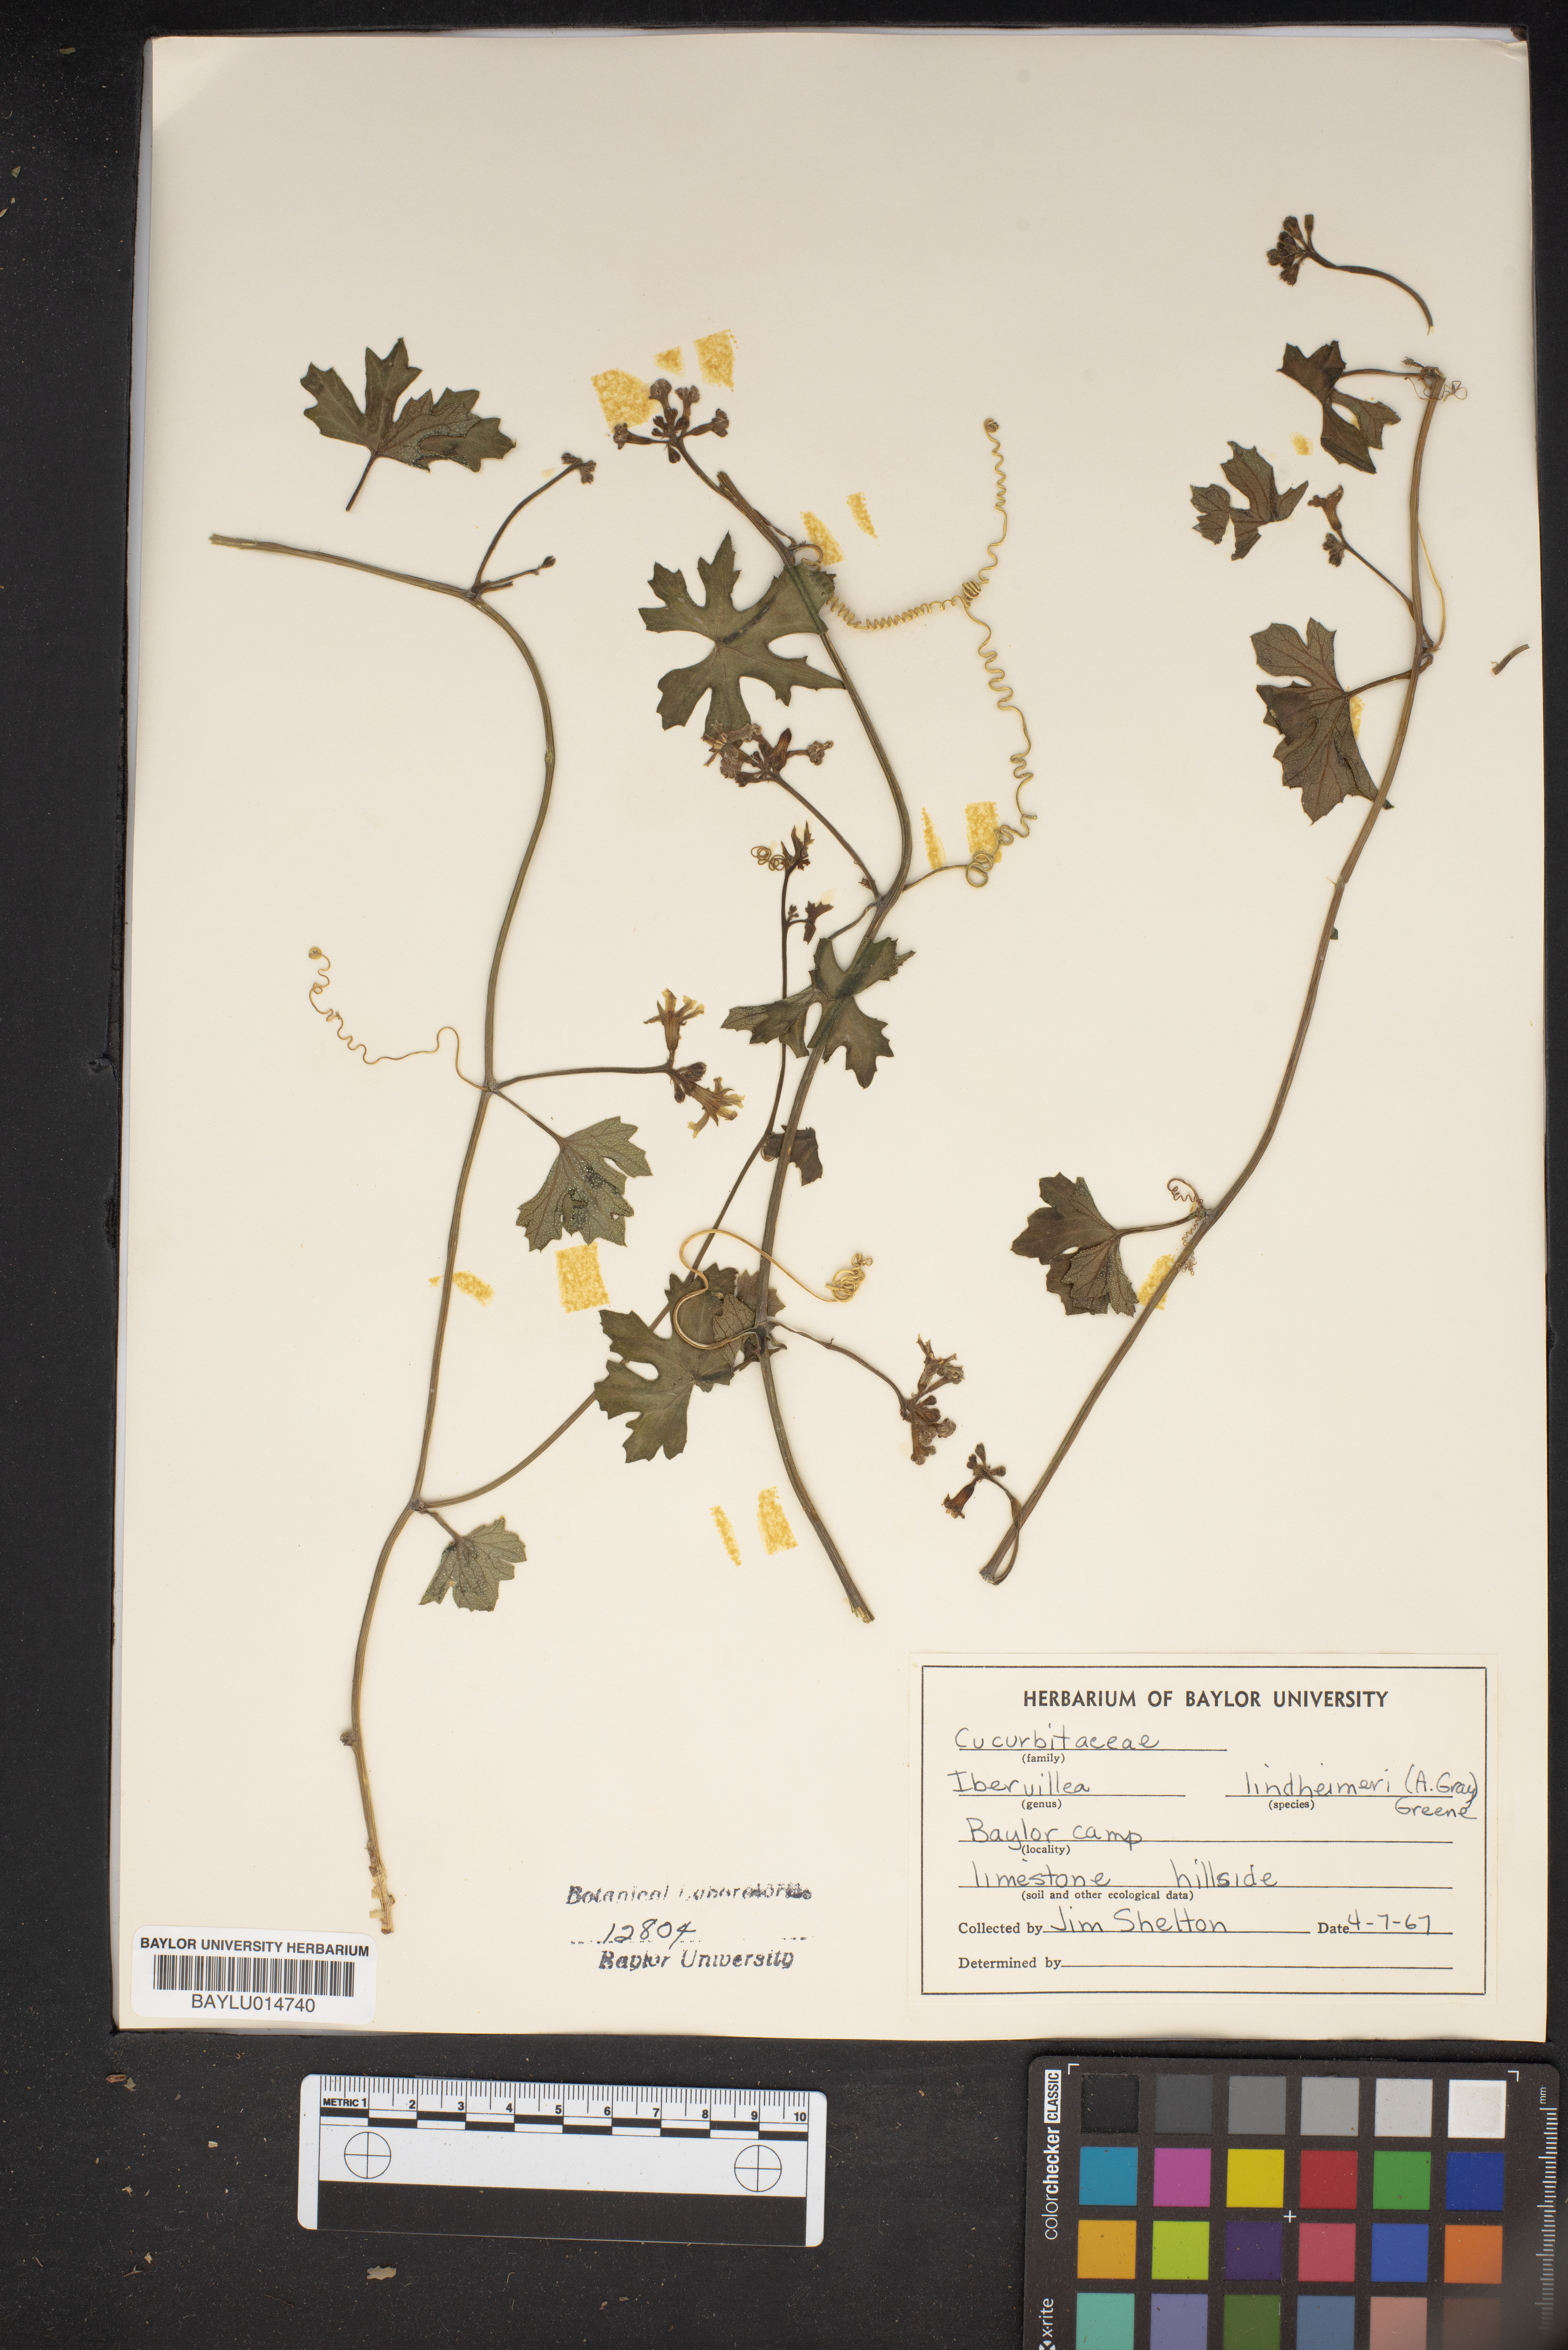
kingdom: Plantae
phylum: Tracheophyta
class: Magnoliopsida
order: Cucurbitales
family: Cucurbitaceae
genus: Ibervillea
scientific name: Ibervillea lindheimeri
